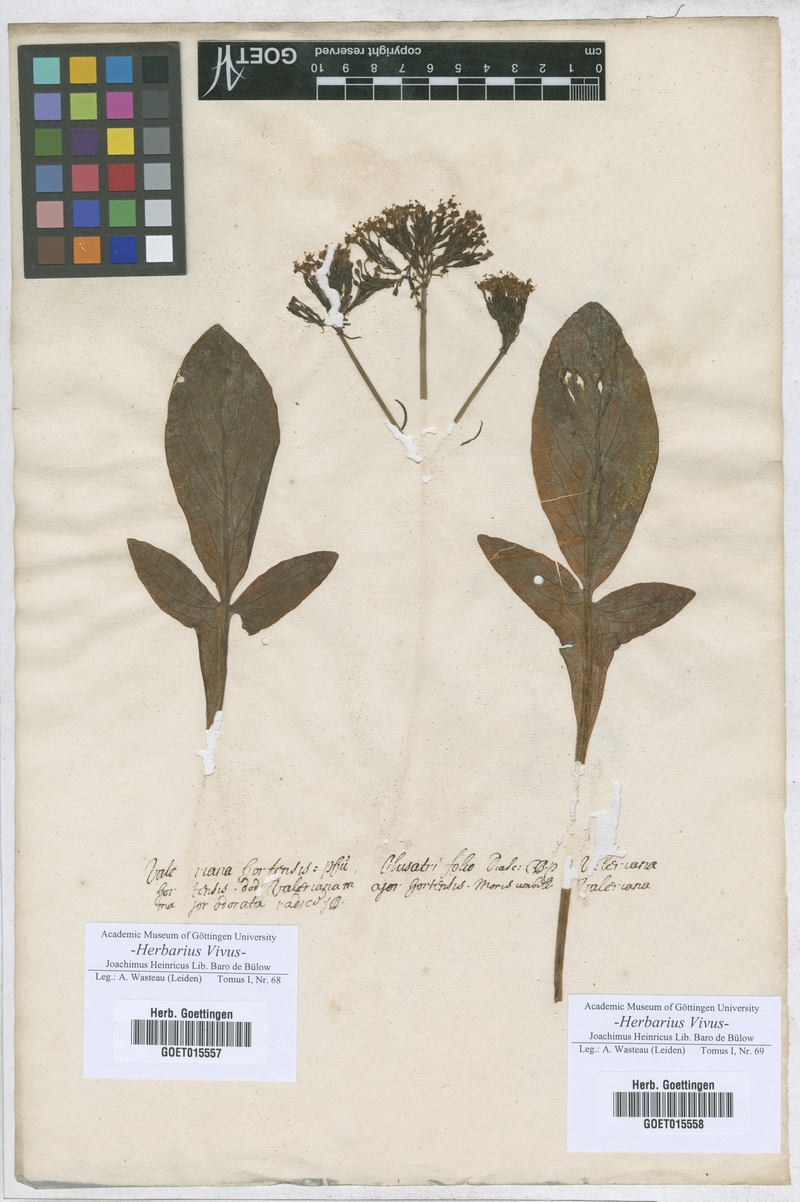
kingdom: Plantae
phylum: Tracheophyta
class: Magnoliopsida
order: Dipsacales
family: Caprifoliaceae
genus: Valeriana
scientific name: Valeriana phu
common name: Turkey valerian
